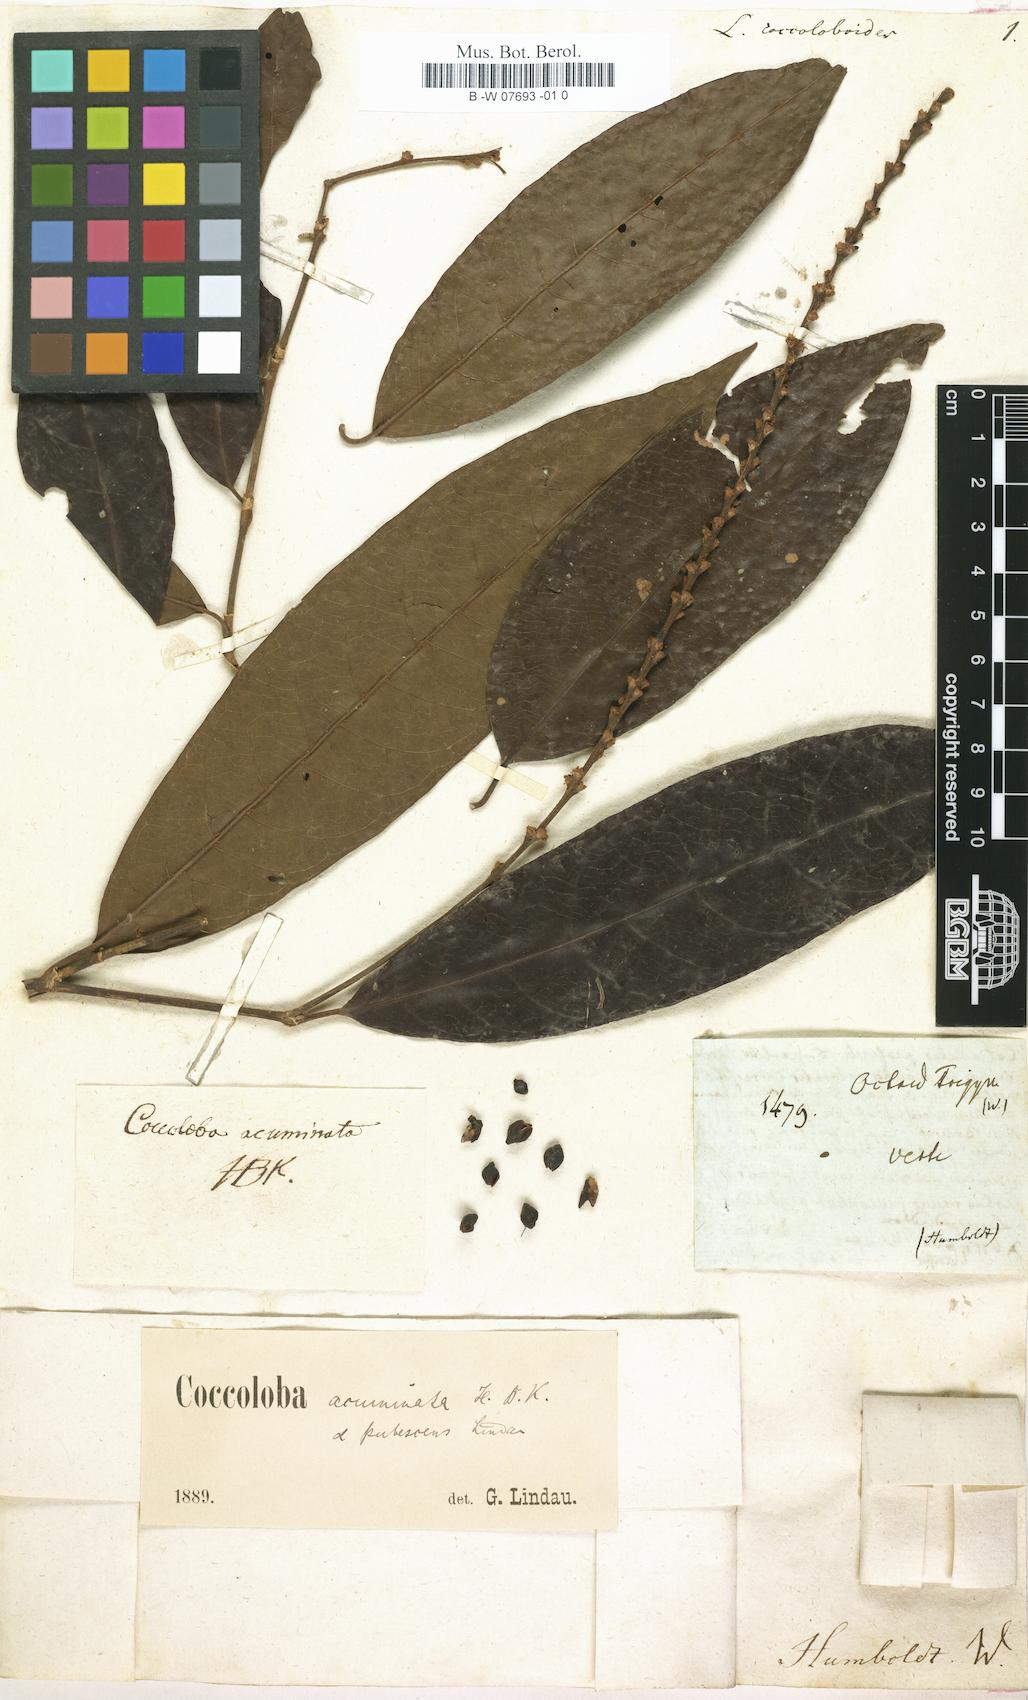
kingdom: Plantae
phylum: Tracheophyta
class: Magnoliopsida
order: Caryophyllales
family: Polygonaceae
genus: Coccoloba
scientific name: Coccoloba acuminata
